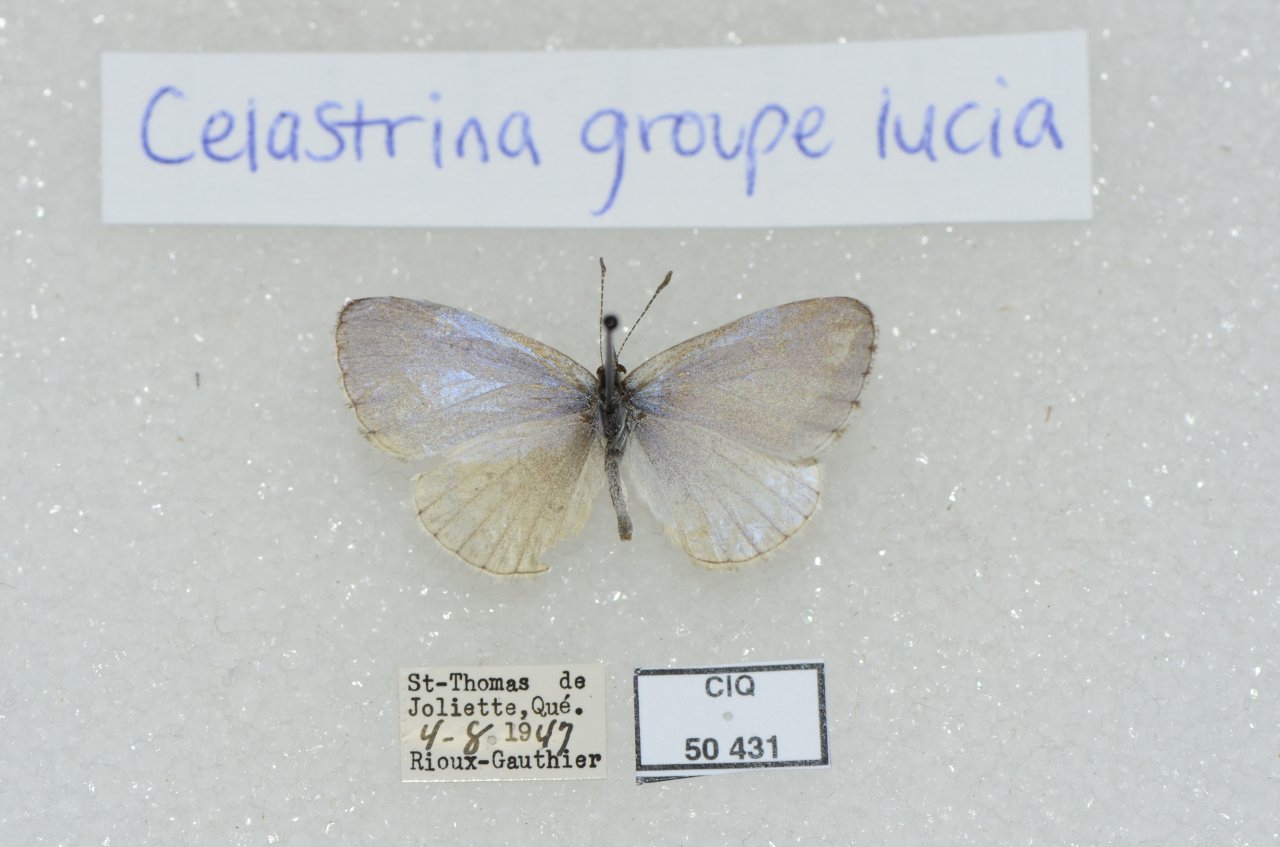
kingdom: Animalia
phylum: Arthropoda
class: Insecta
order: Lepidoptera
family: Lycaenidae
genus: Celastrina
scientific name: Celastrina lucia
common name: Northern Spring Azure
